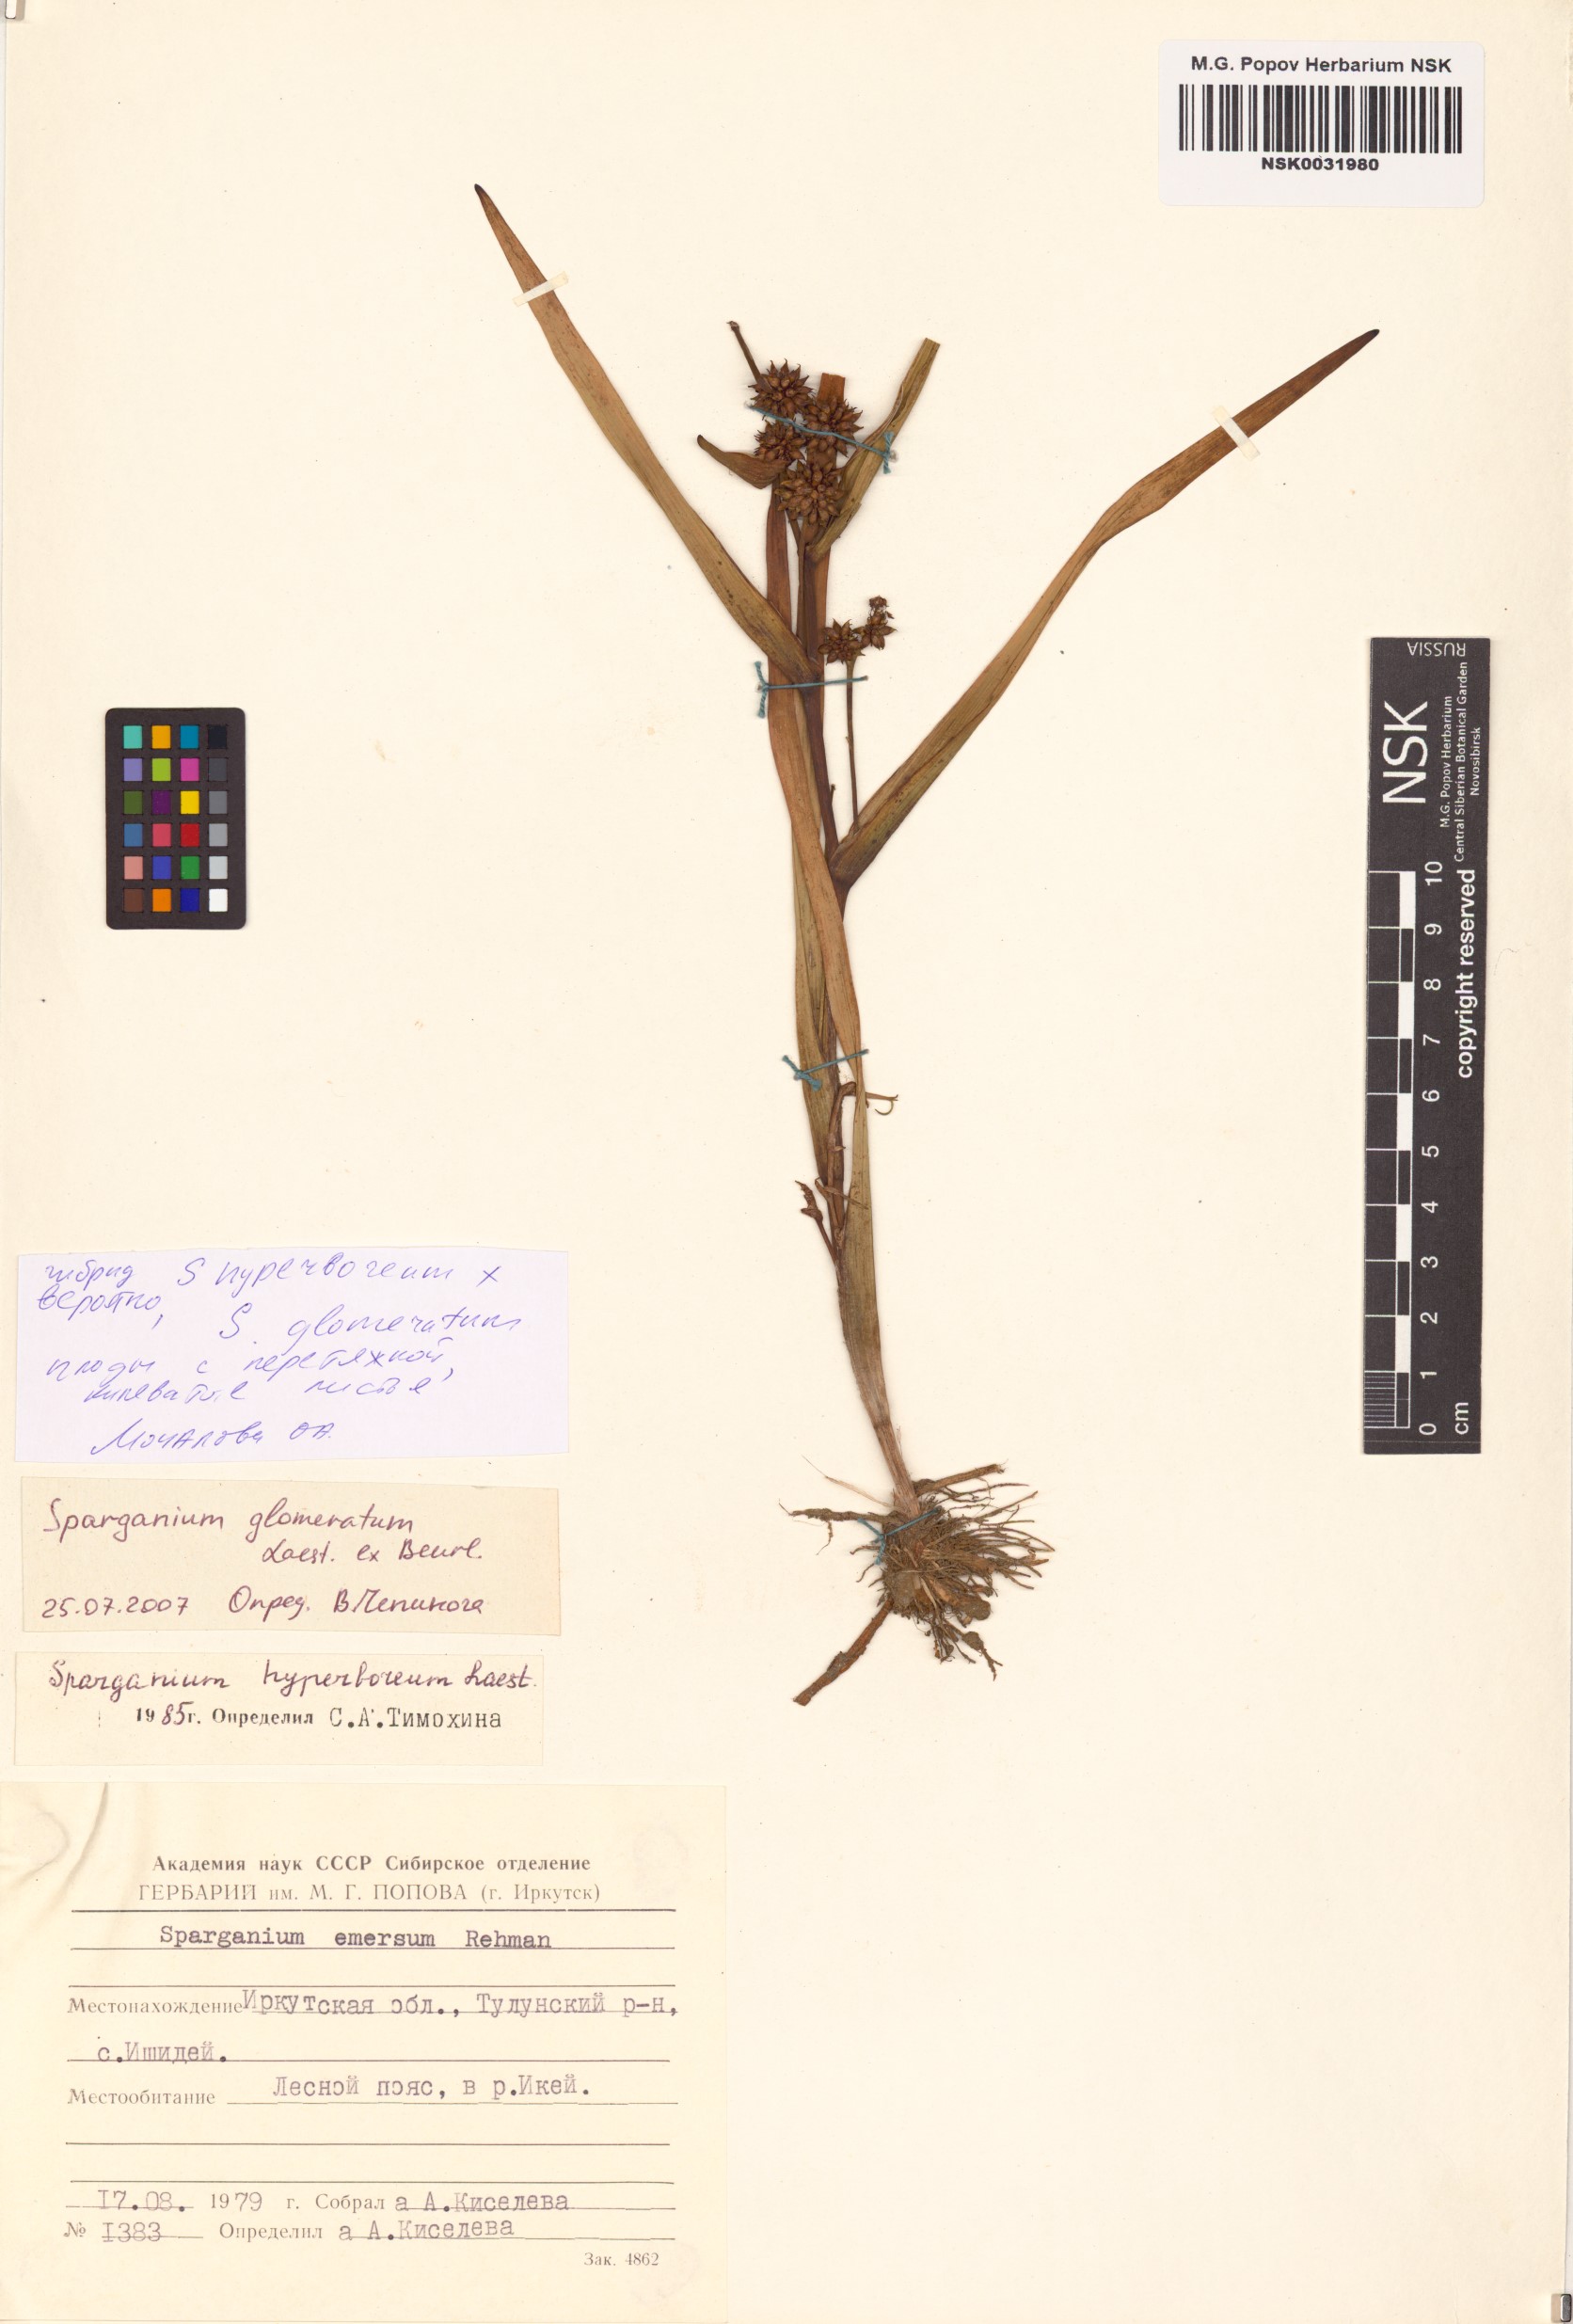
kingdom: Plantae
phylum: Tracheophyta
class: Liliopsida
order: Poales
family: Typhaceae
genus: Sparganium
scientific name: Sparganium glomeratum
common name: Clustered burreed
